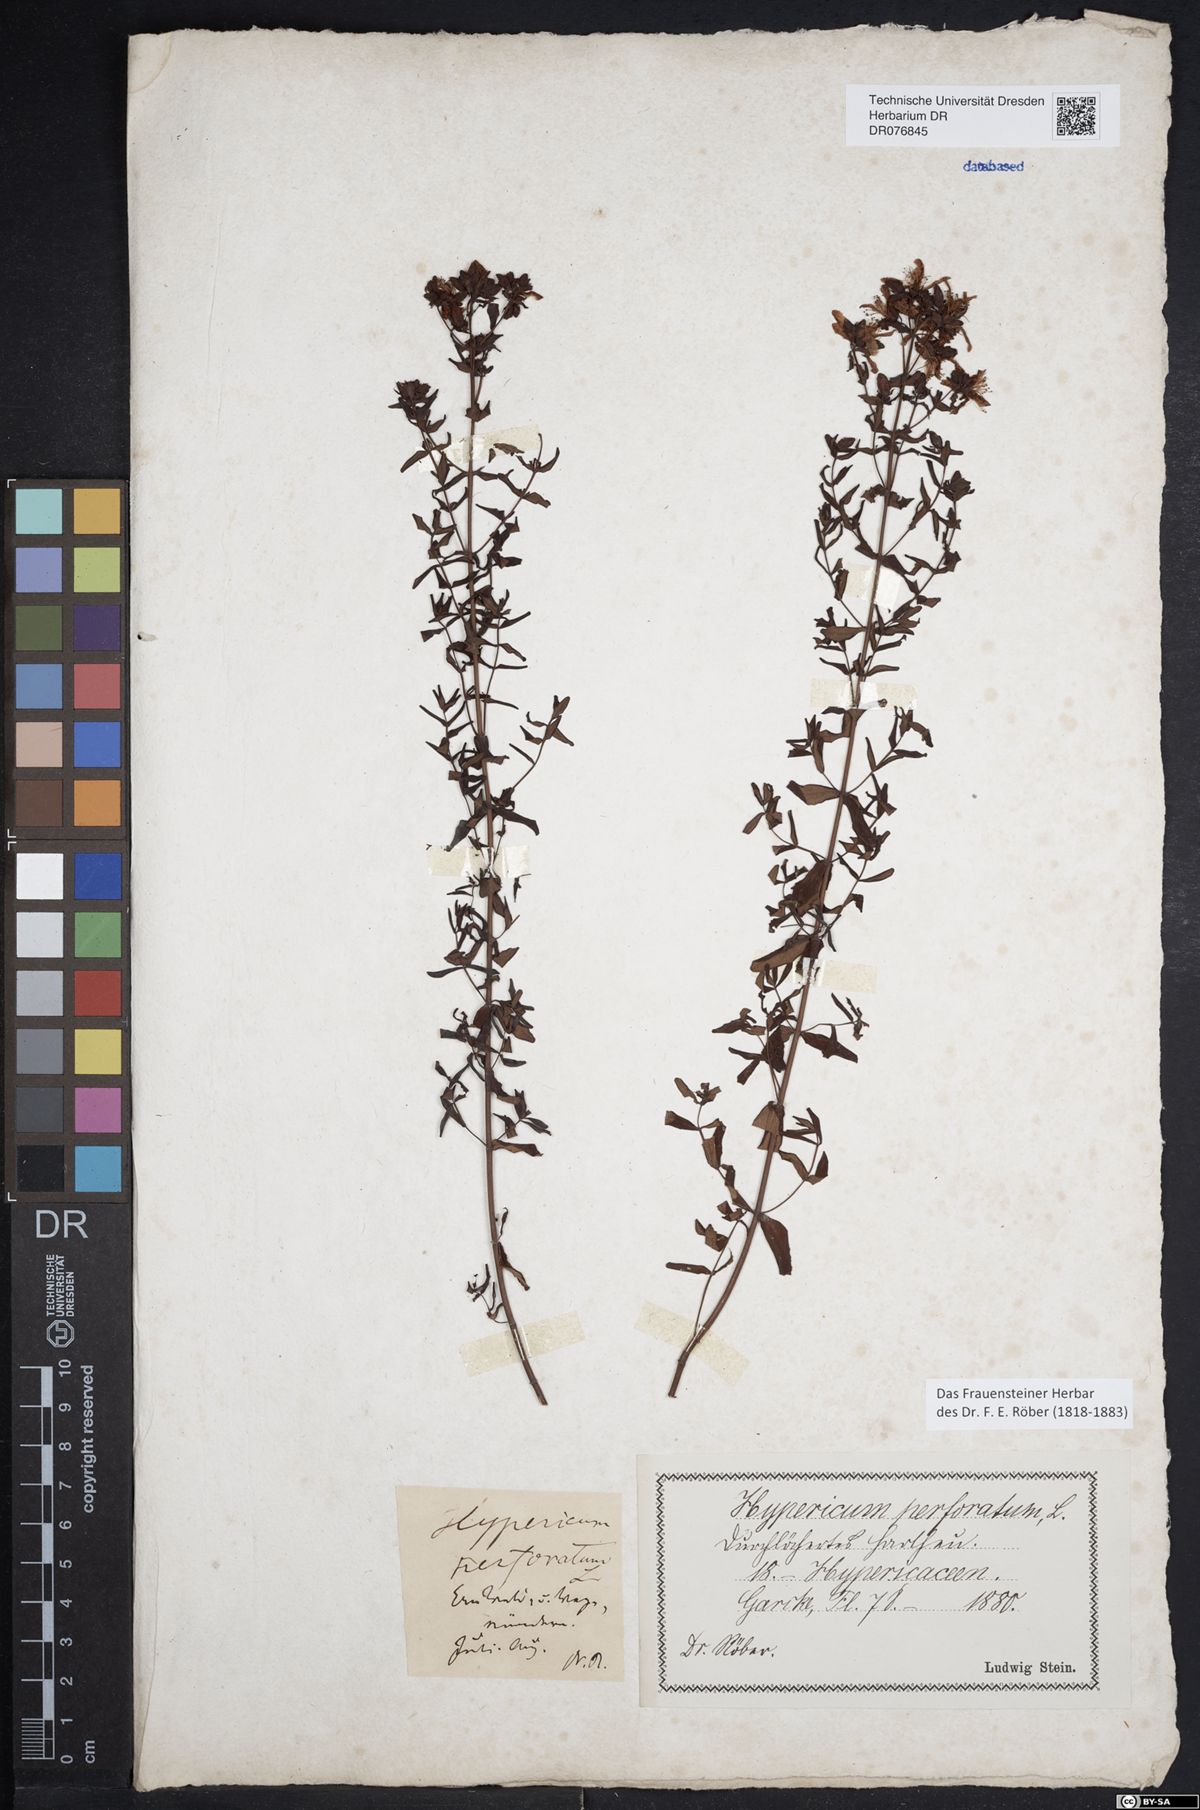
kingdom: Plantae
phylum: Tracheophyta
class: Magnoliopsida
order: Malpighiales
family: Hypericaceae
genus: Hypericum
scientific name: Hypericum perforatum
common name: Common st. johnswort
